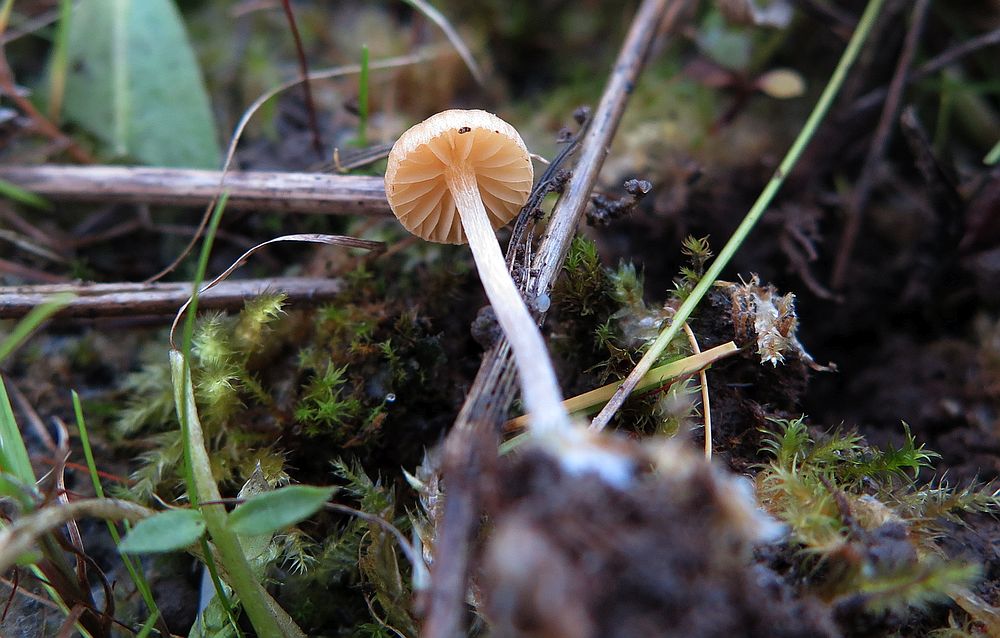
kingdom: Fungi
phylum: Basidiomycota
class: Agaricomycetes
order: Agaricales
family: Hymenogastraceae
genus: Galerina
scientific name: Galerina graminea
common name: plæne-hjelmhat
